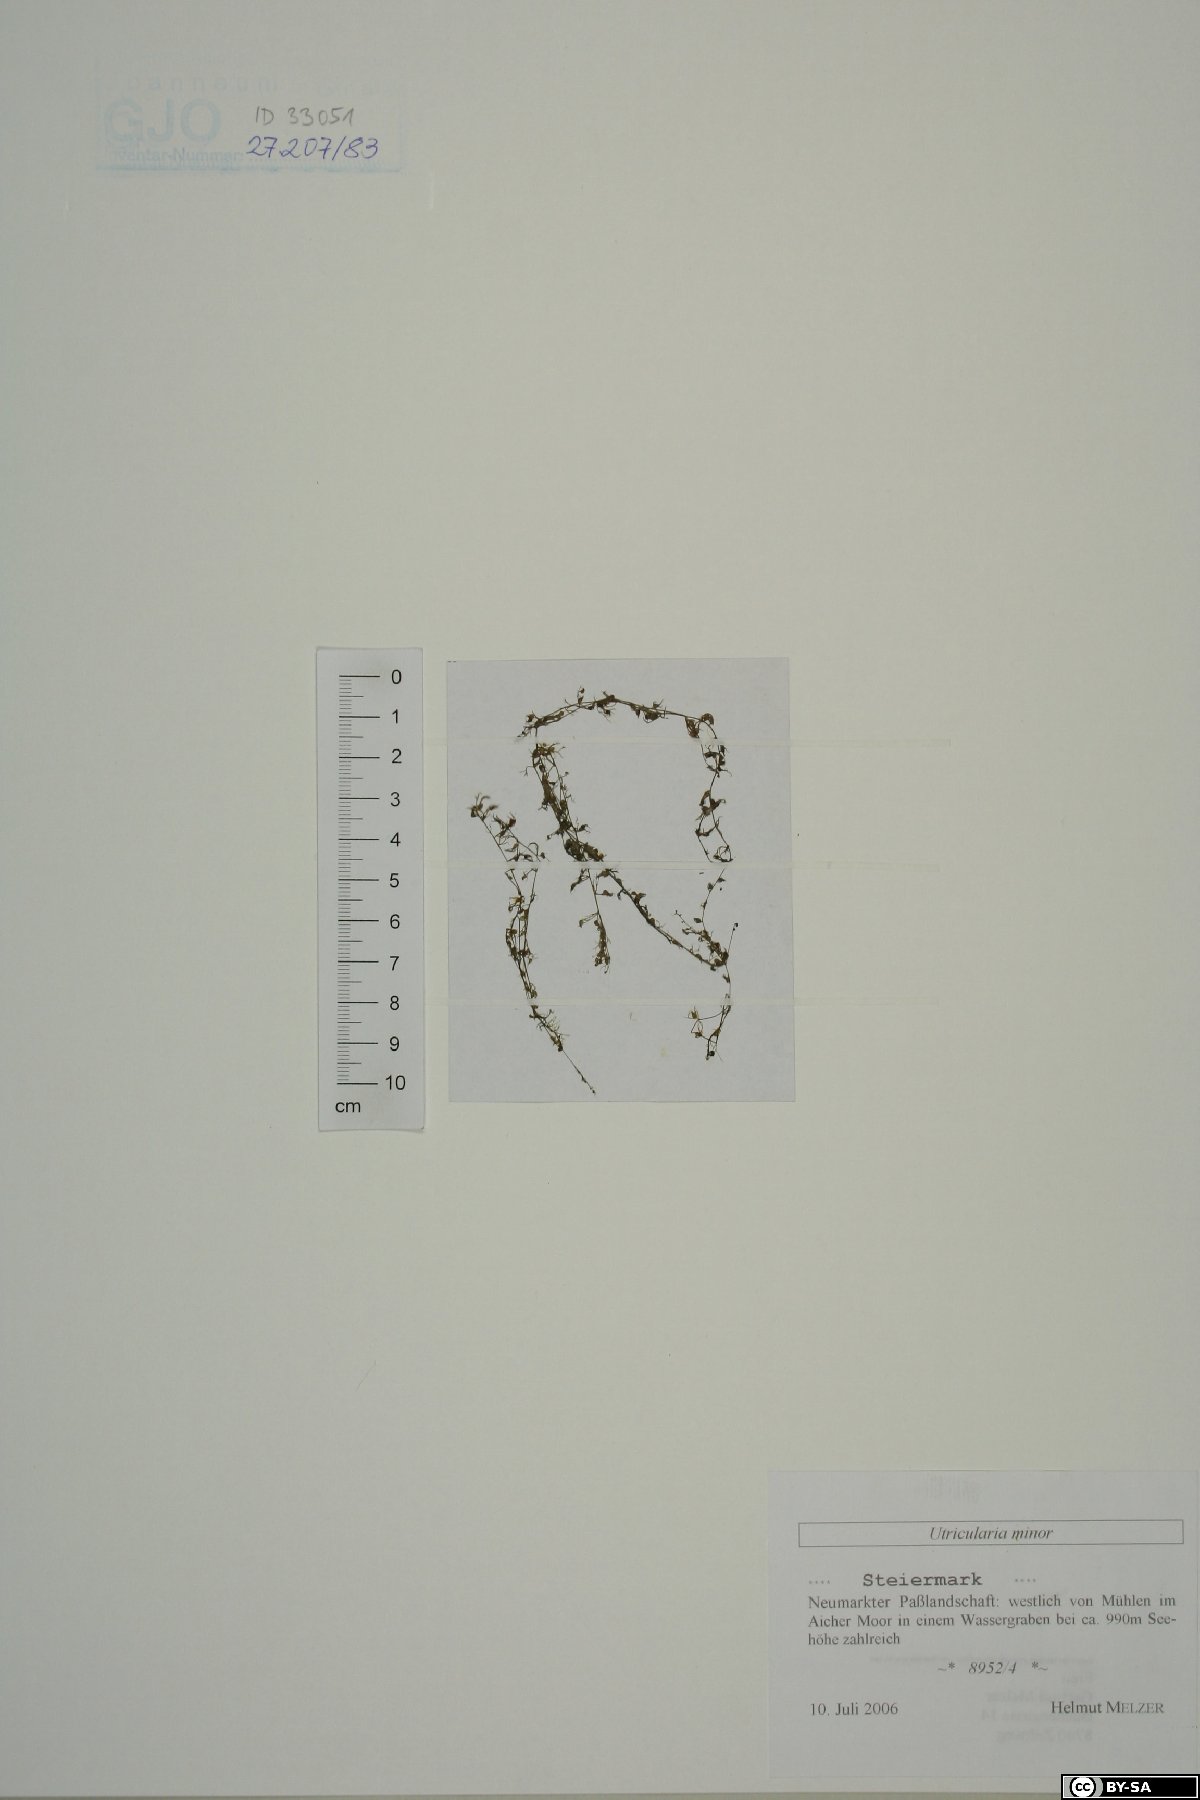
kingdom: Plantae
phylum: Tracheophyta
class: Magnoliopsida
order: Lamiales
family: Lentibulariaceae
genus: Utricularia
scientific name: Utricularia minor
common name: Lesser bladderwort
